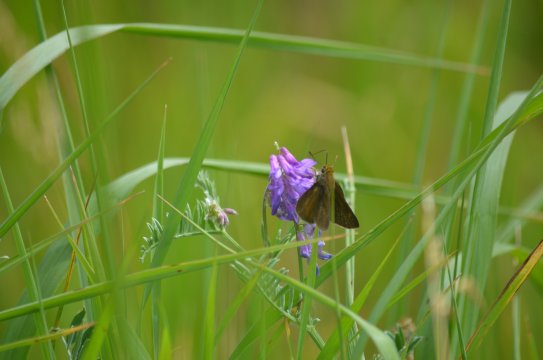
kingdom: Animalia
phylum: Arthropoda
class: Insecta
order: Lepidoptera
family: Hesperiidae
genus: Euphyes
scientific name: Euphyes vestris
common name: Dun Skipper
